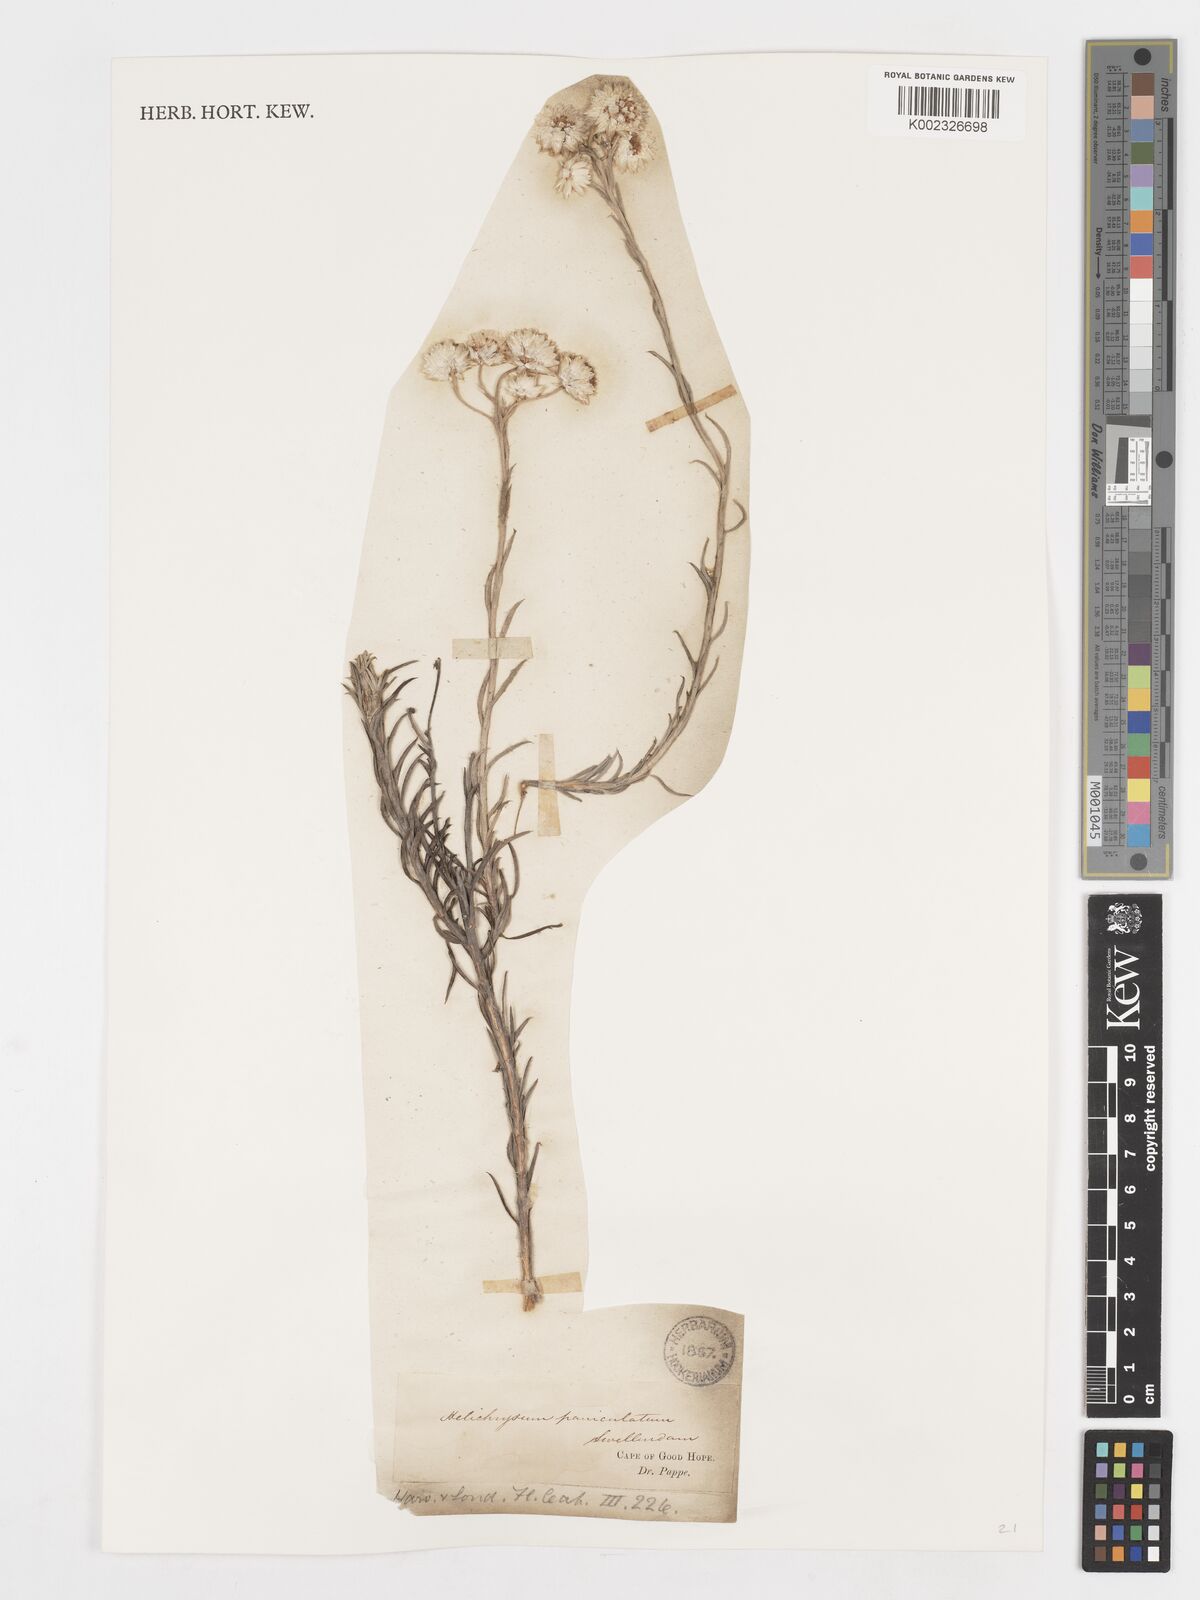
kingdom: Plantae
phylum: Tracheophyta
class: Magnoliopsida
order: Asterales
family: Asteraceae
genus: Achyranthemum
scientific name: Achyranthemum paniculatum
